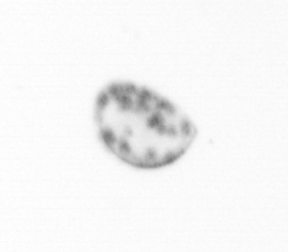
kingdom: Chromista
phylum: Ochrophyta
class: Bacillariophyceae
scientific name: Bacillariophyceae
